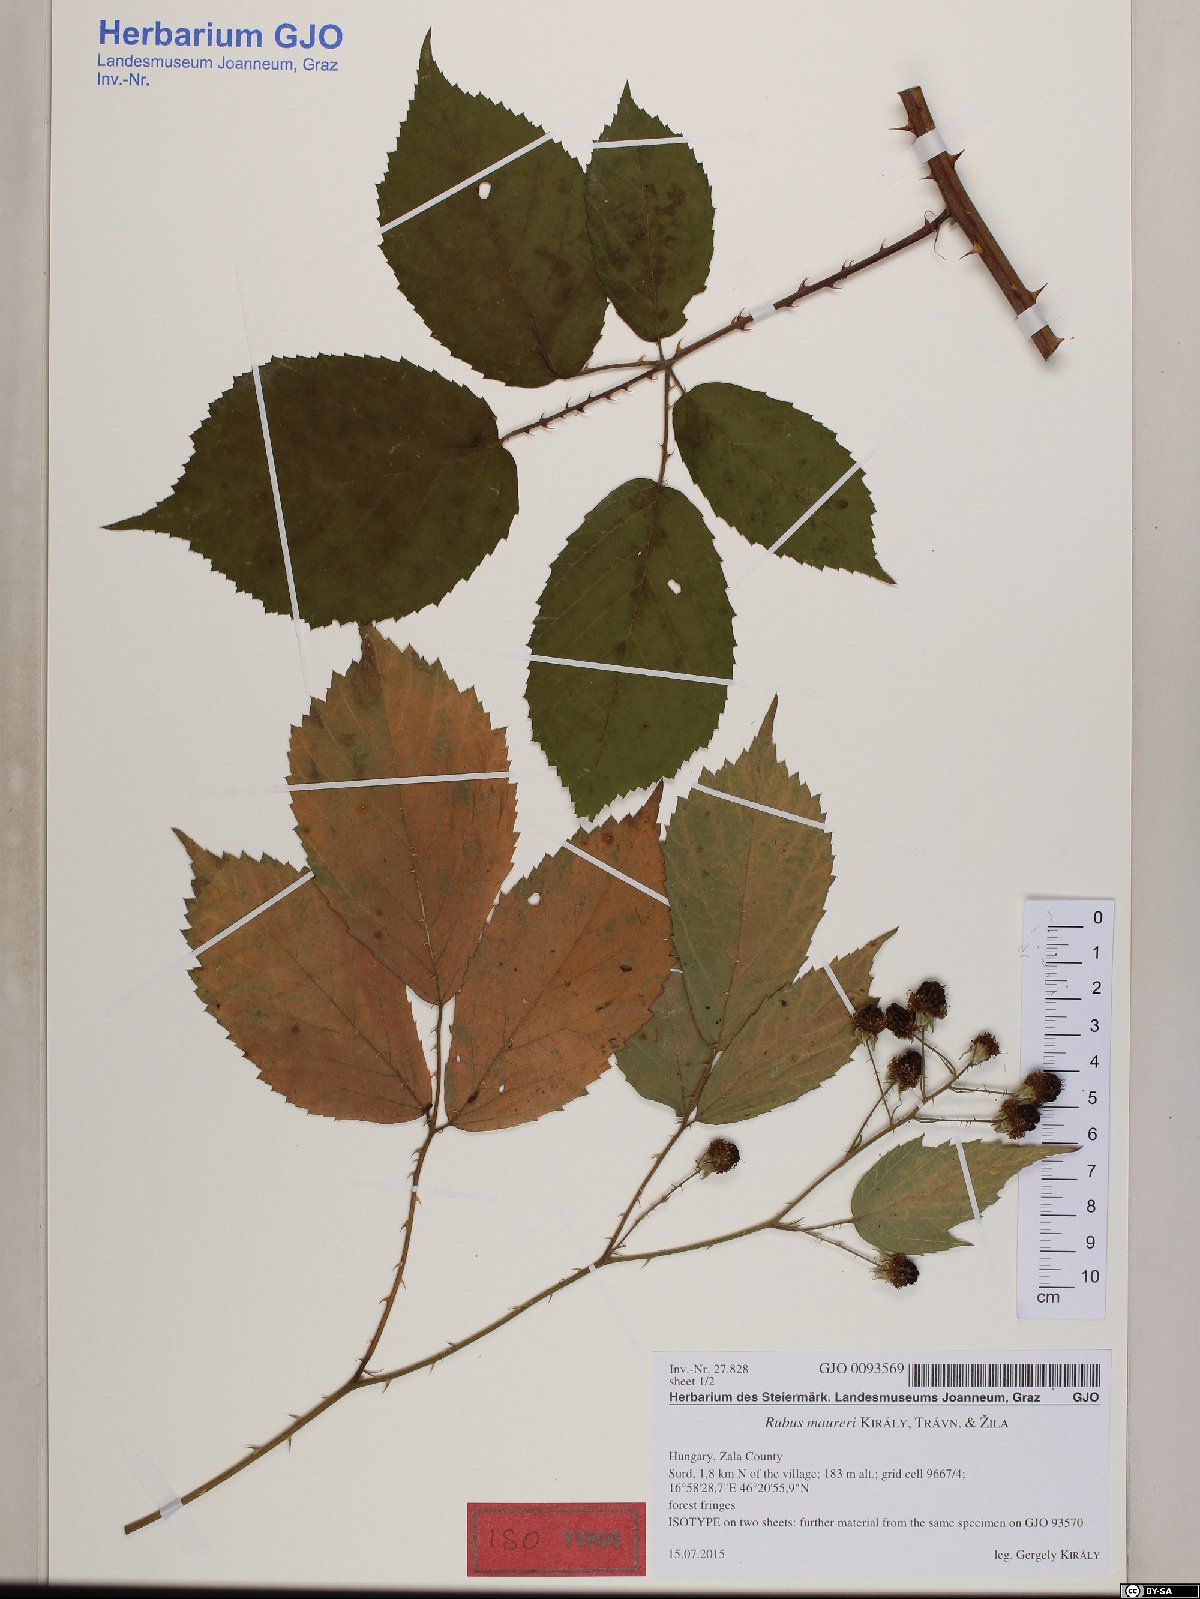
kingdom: Plantae
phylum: Tracheophyta
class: Magnoliopsida
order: Rosales
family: Rosaceae
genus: Rubus
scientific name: Rubus maureri
